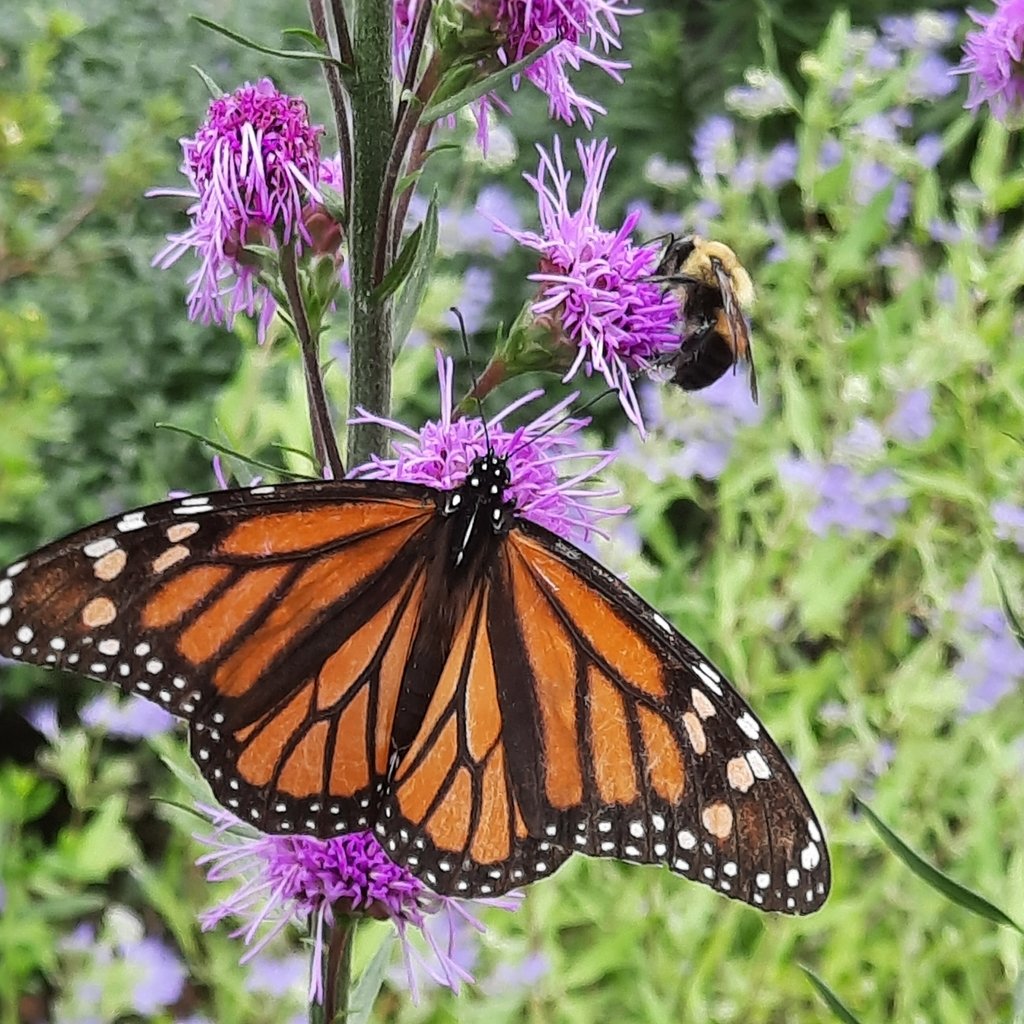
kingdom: Animalia
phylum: Arthropoda
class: Insecta
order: Lepidoptera
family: Nymphalidae
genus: Danaus
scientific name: Danaus plexippus
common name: Monarch
